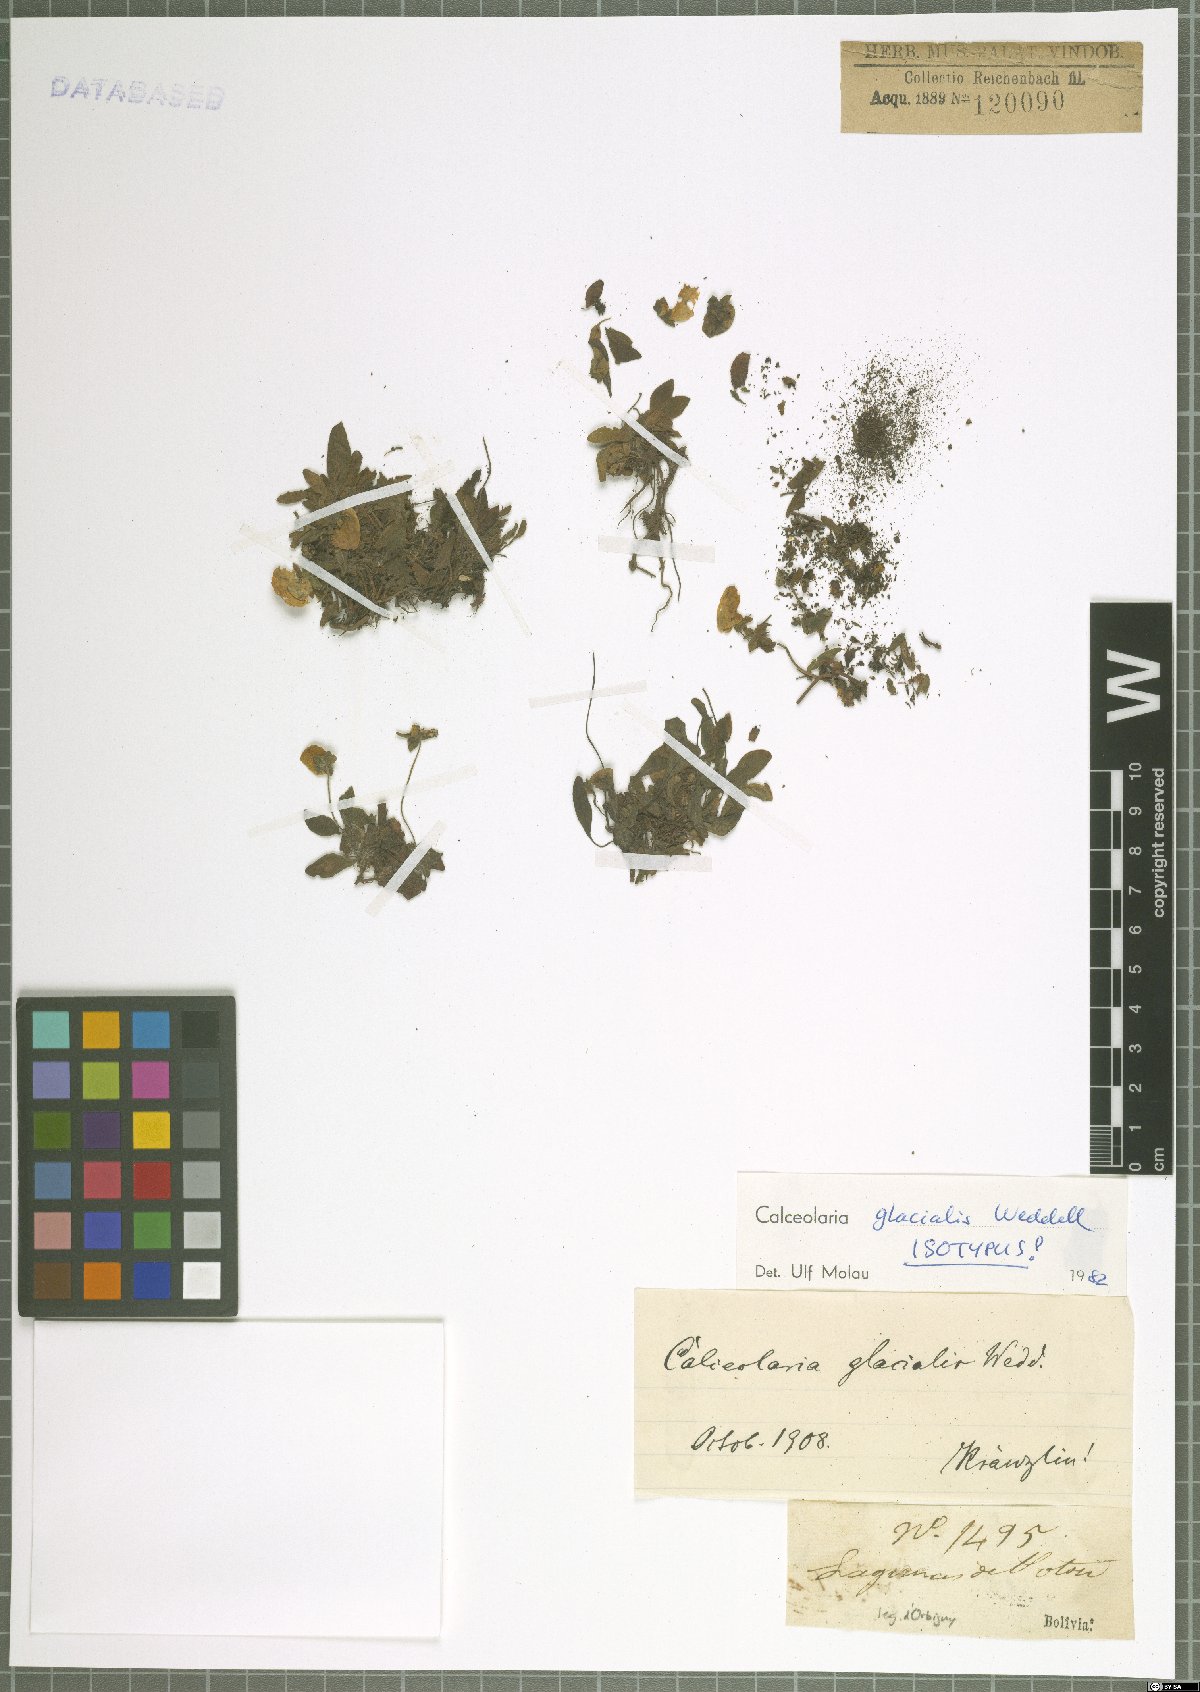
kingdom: Plantae
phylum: Tracheophyta
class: Magnoliopsida
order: Lamiales
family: Calceolariaceae
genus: Calceolaria
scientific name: Calceolaria glacialis
